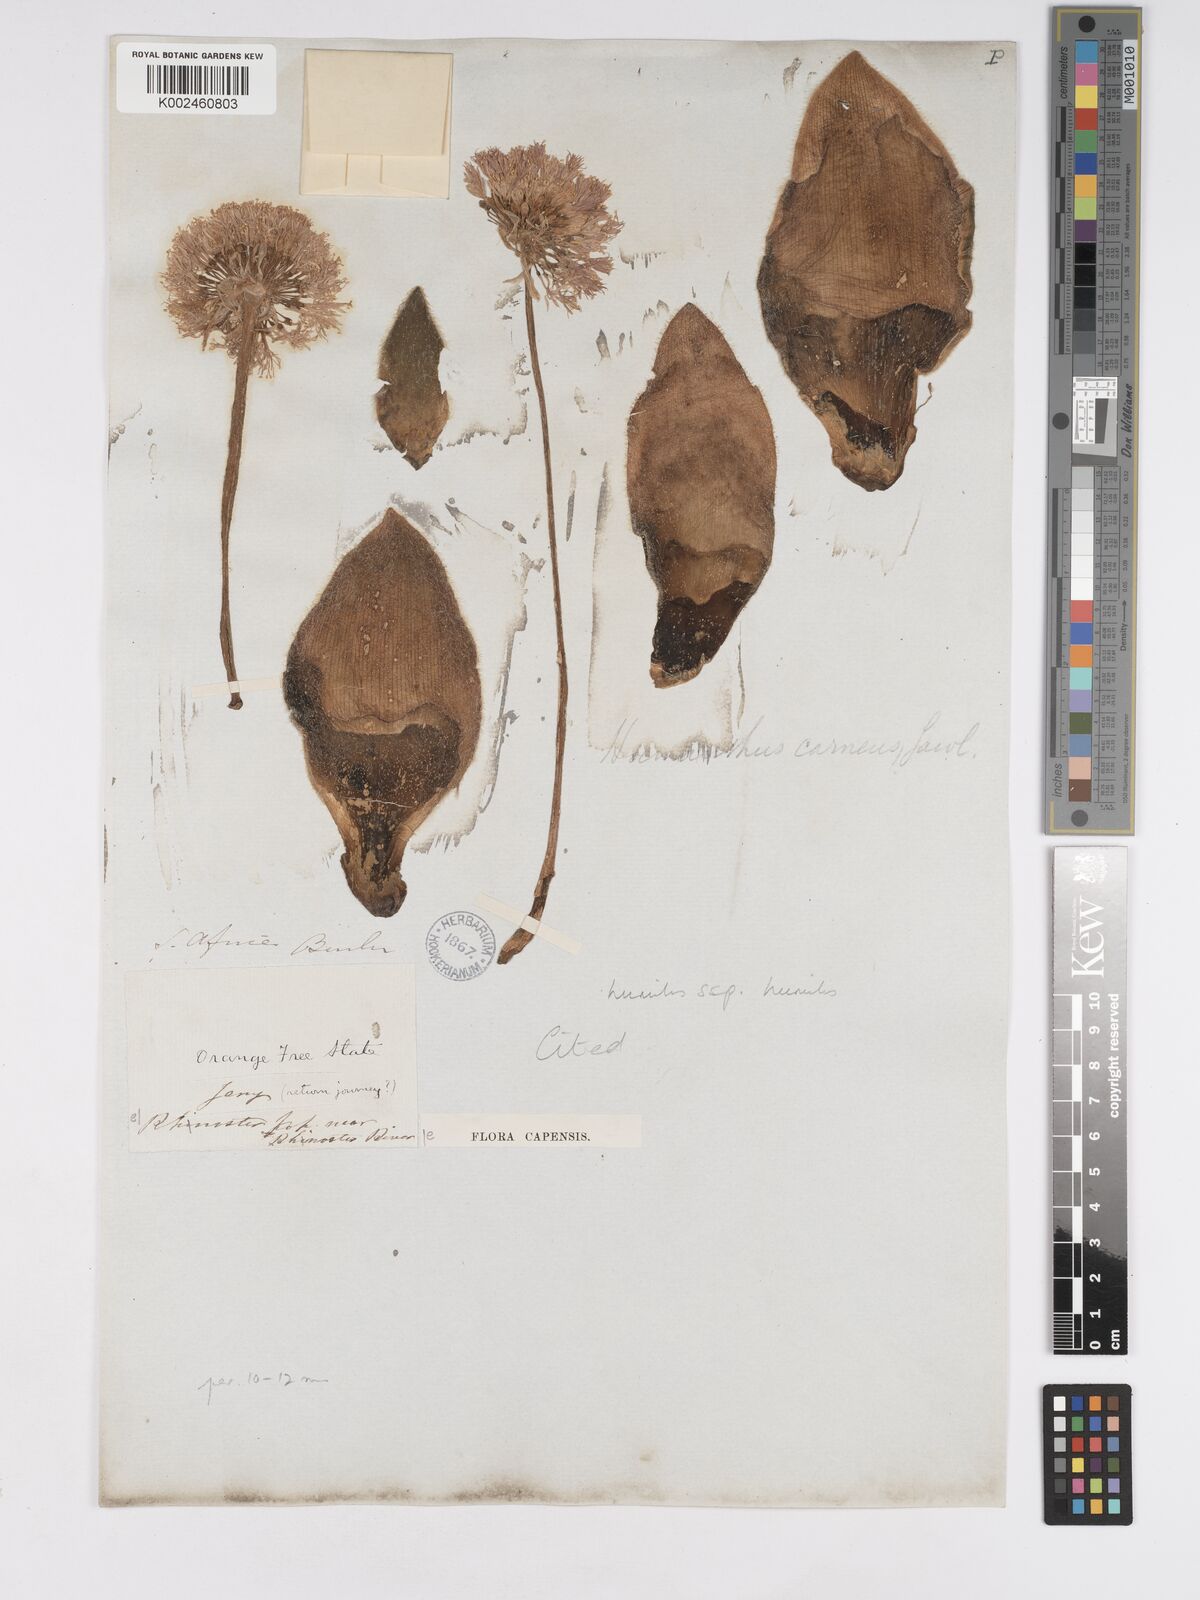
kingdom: Plantae
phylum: Tracheophyta
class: Liliopsida
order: Asparagales
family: Amaryllidaceae
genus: Haemanthus
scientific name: Haemanthus humilis
